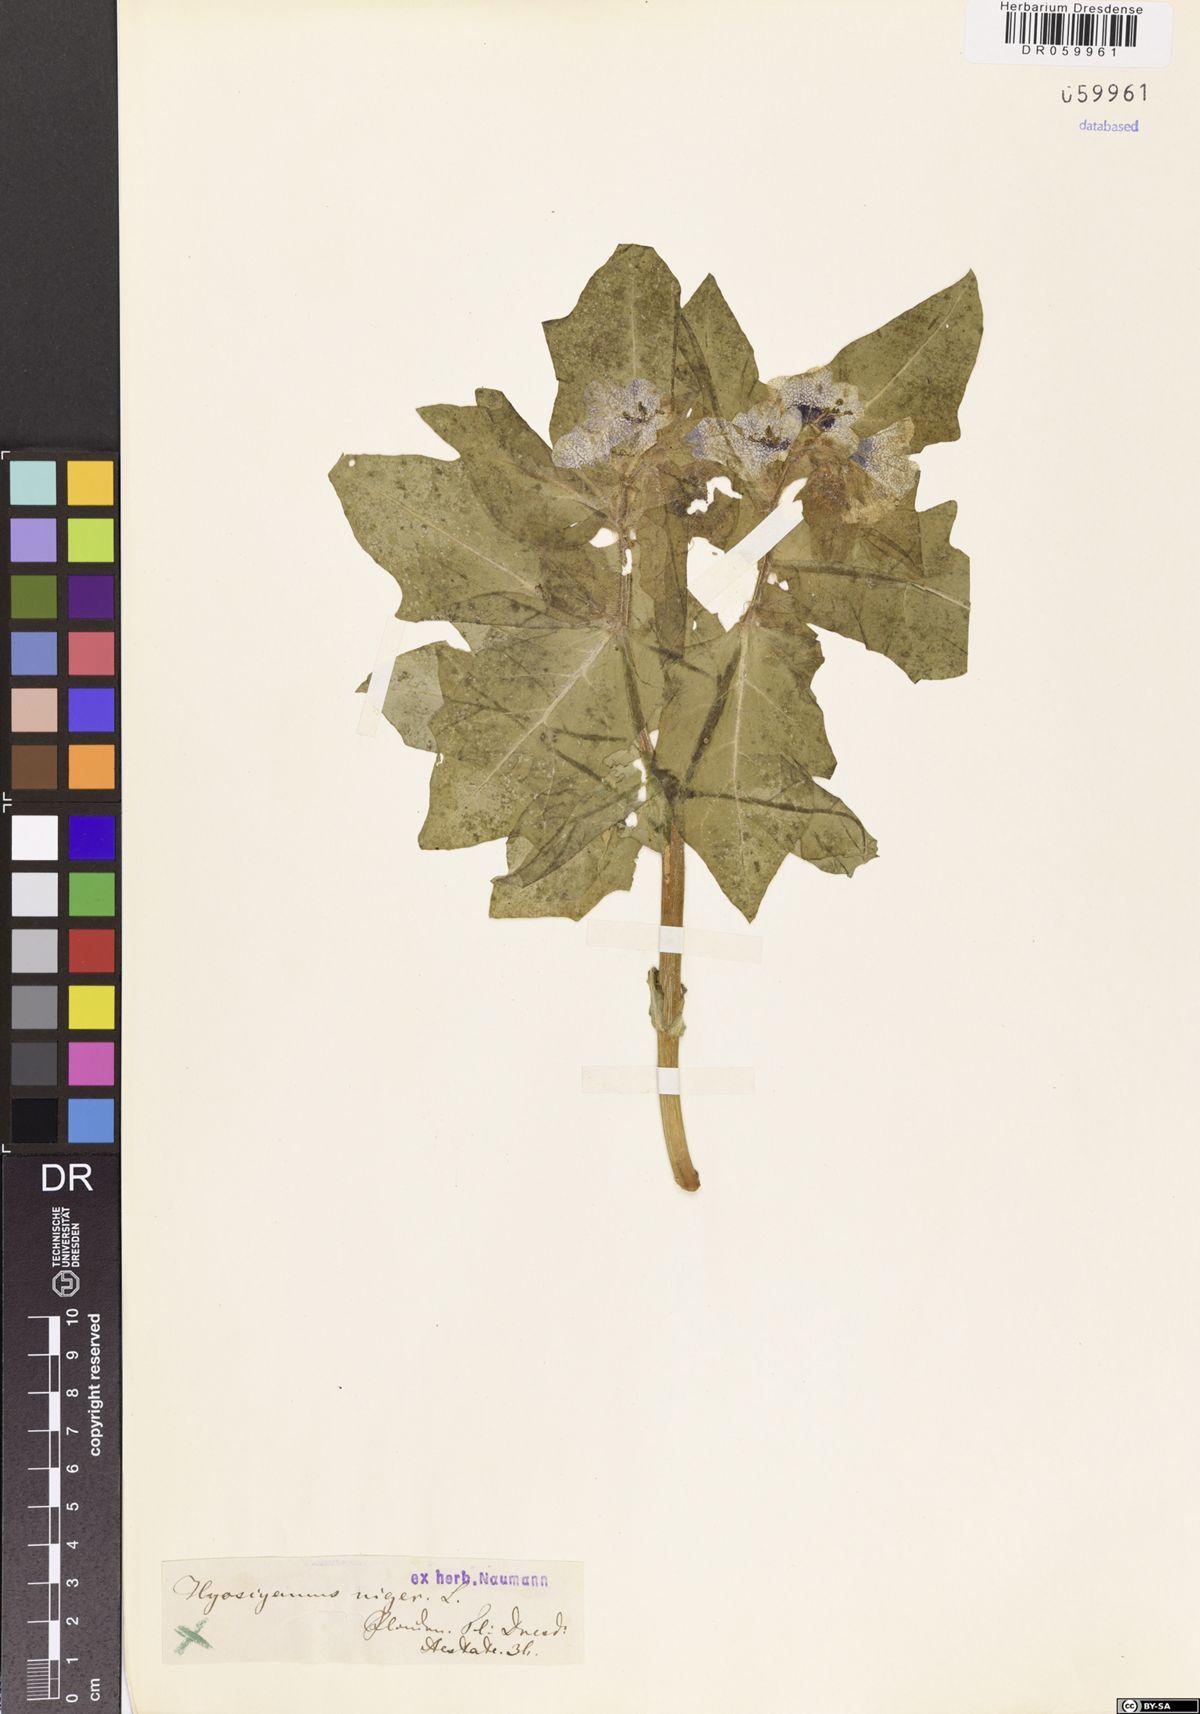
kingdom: Plantae
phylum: Tracheophyta
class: Magnoliopsida
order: Solanales
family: Solanaceae
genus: Hyoscyamus
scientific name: Hyoscyamus niger
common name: Henbane
